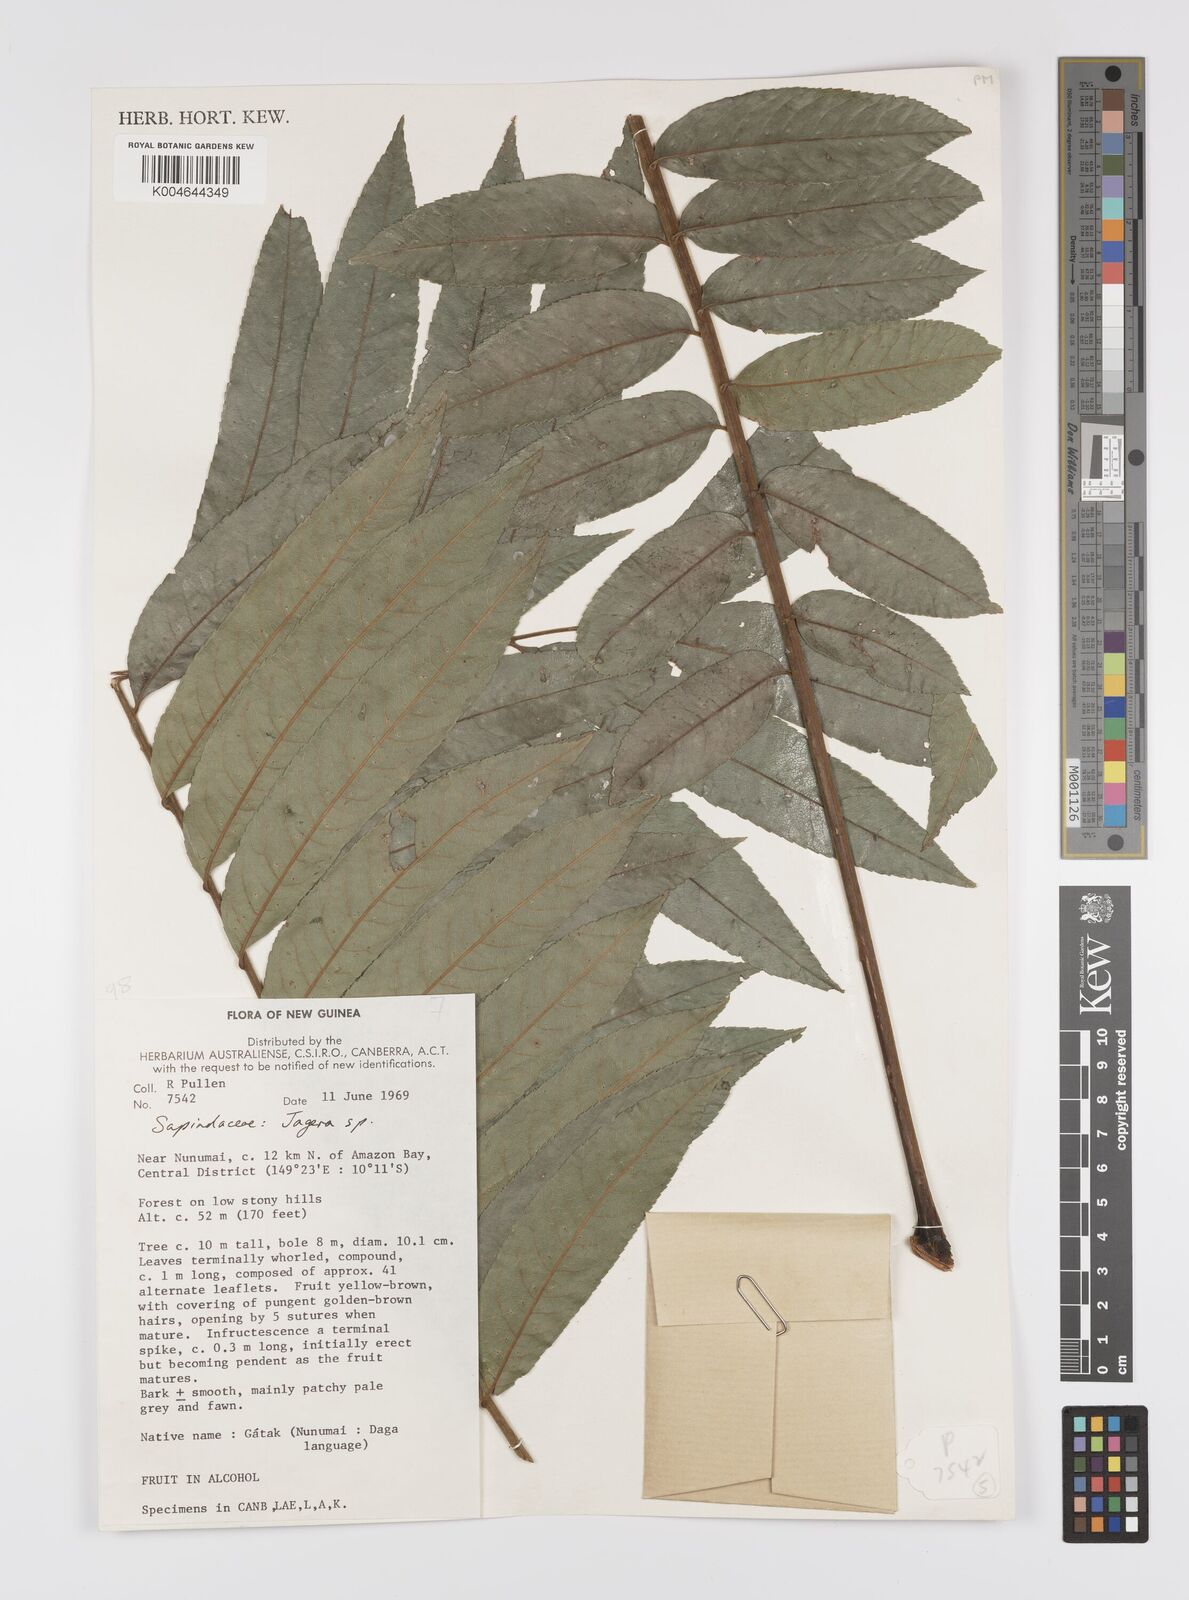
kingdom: Plantae
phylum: Tracheophyta
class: Magnoliopsida
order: Sapindales
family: Sapindaceae
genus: Jagera
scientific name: Jagera
